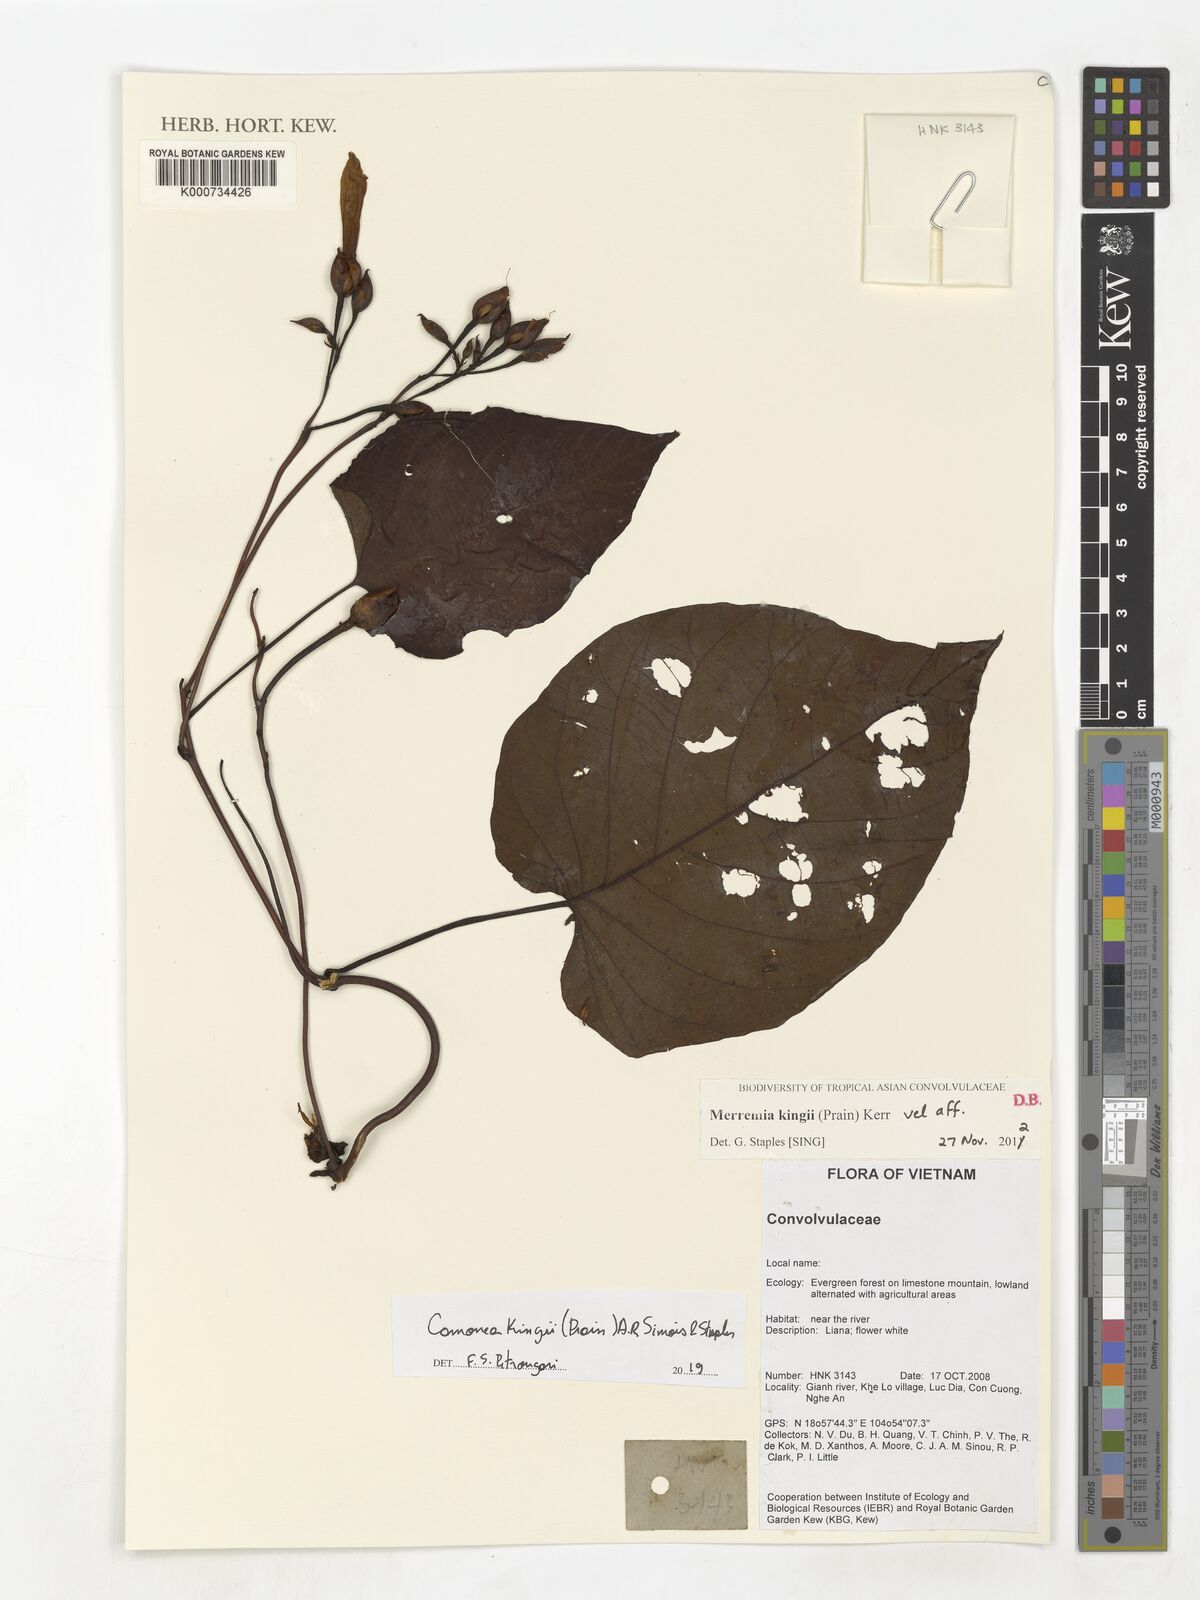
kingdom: Plantae
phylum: Tracheophyta
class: Magnoliopsida
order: Solanales
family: Convolvulaceae
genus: Camonea
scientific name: Camonea kingii
